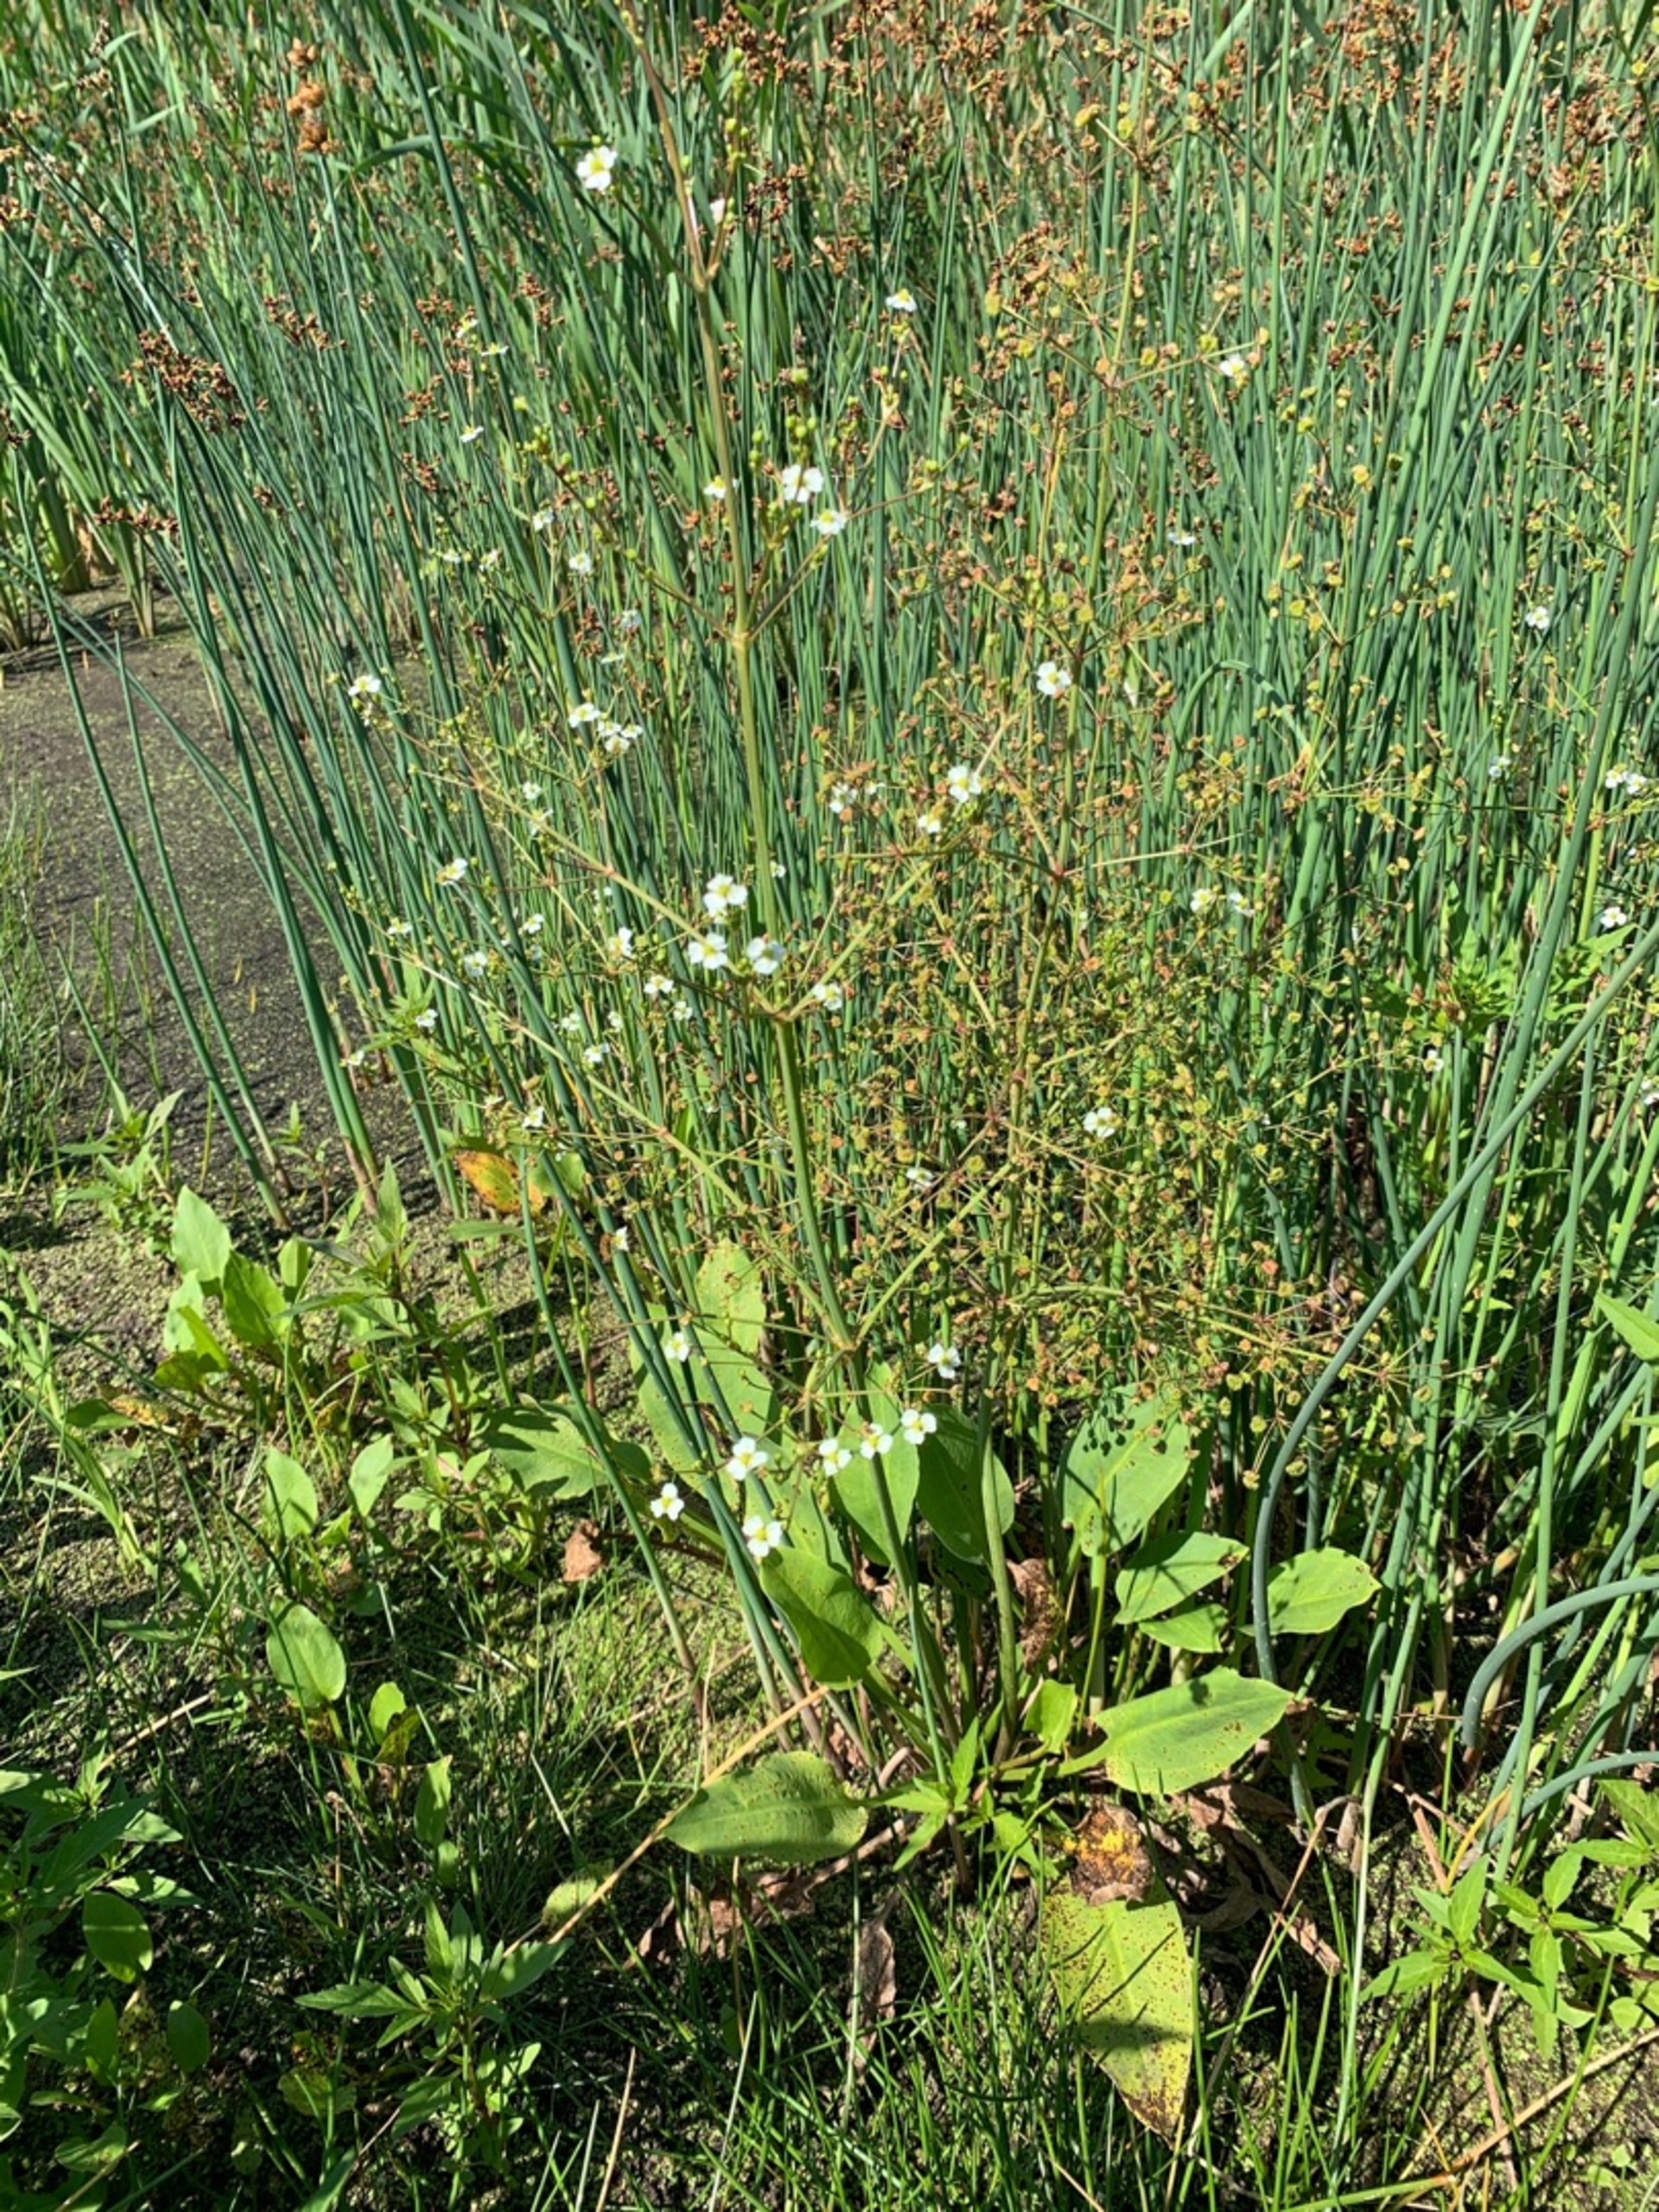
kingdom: Plantae
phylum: Tracheophyta
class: Liliopsida
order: Alismatales
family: Alismataceae
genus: Alisma
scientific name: Alisma plantago-aquatica
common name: Vejbred-skeblad
